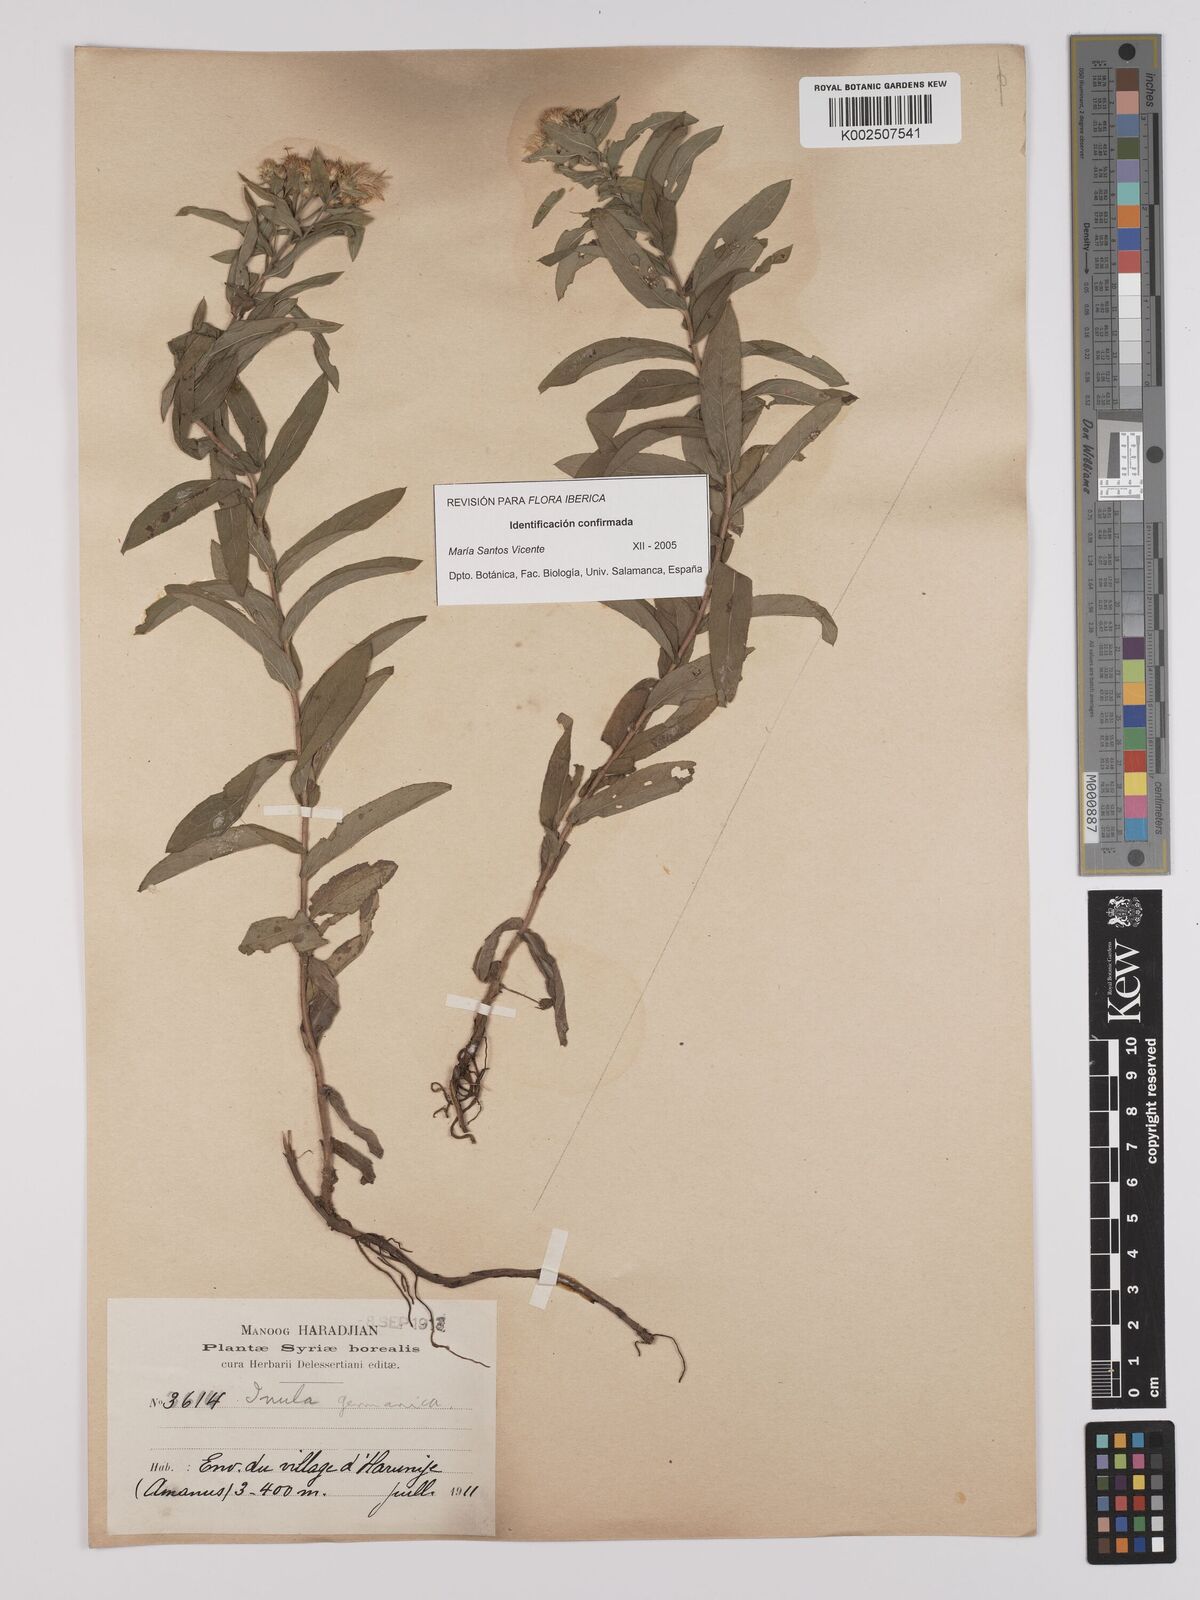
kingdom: Plantae
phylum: Tracheophyta
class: Magnoliopsida
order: Asterales
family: Asteraceae
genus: Pentanema
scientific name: Pentanema germanicum
